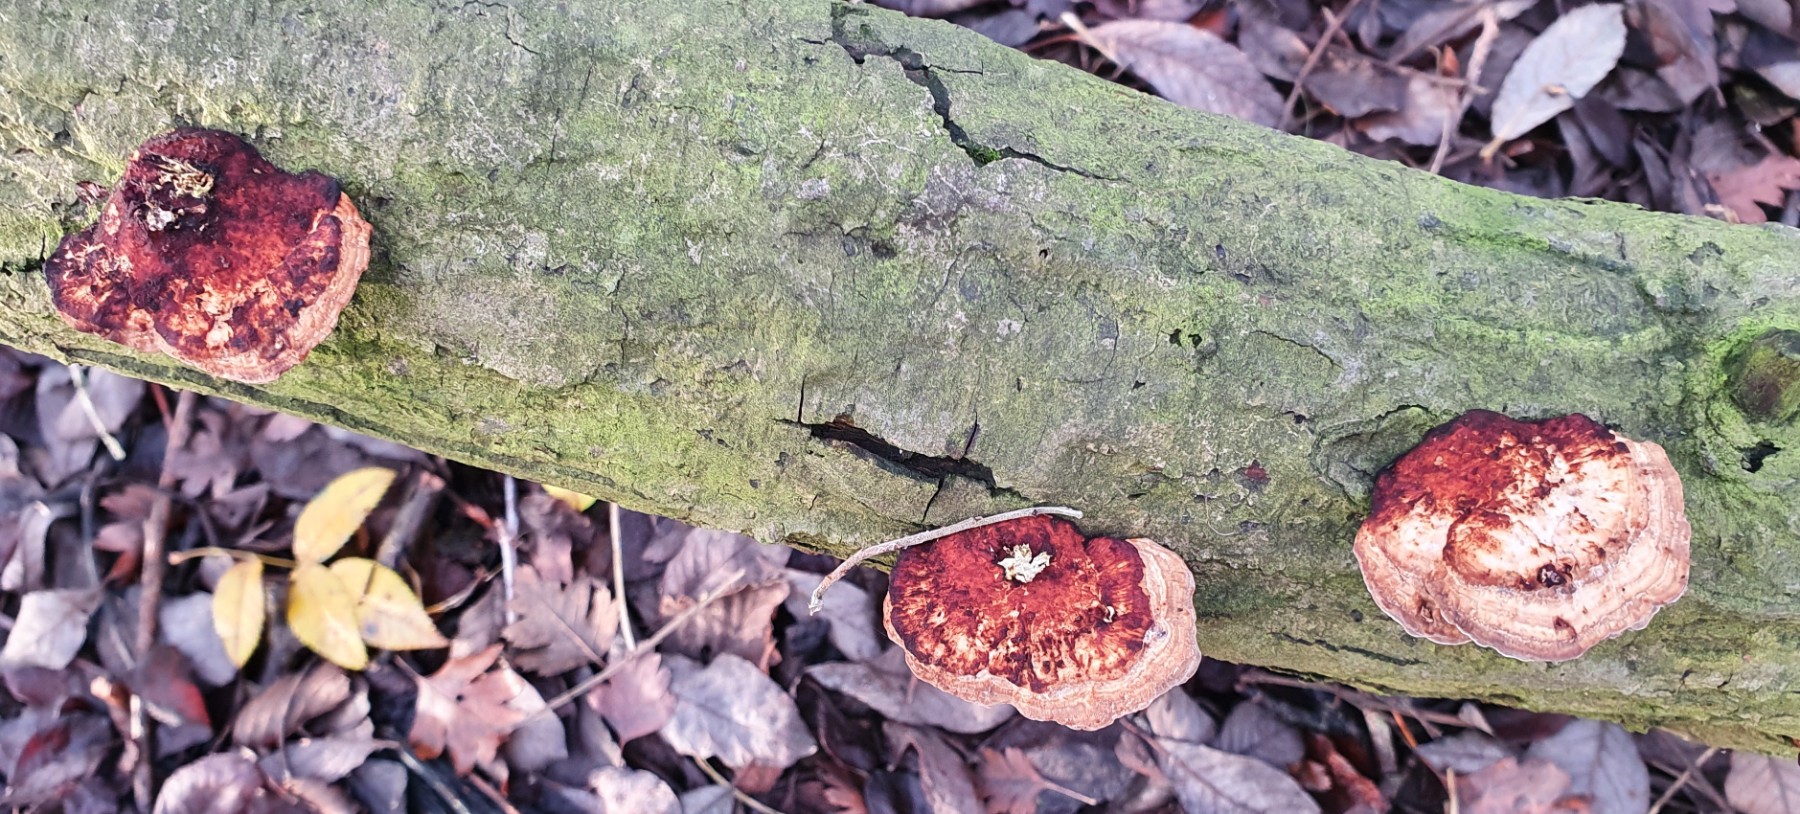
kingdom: Fungi
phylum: Basidiomycota
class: Agaricomycetes
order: Polyporales
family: Polyporaceae
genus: Daedaleopsis
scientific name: Daedaleopsis confragosa
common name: rødmende læderporesvamp
